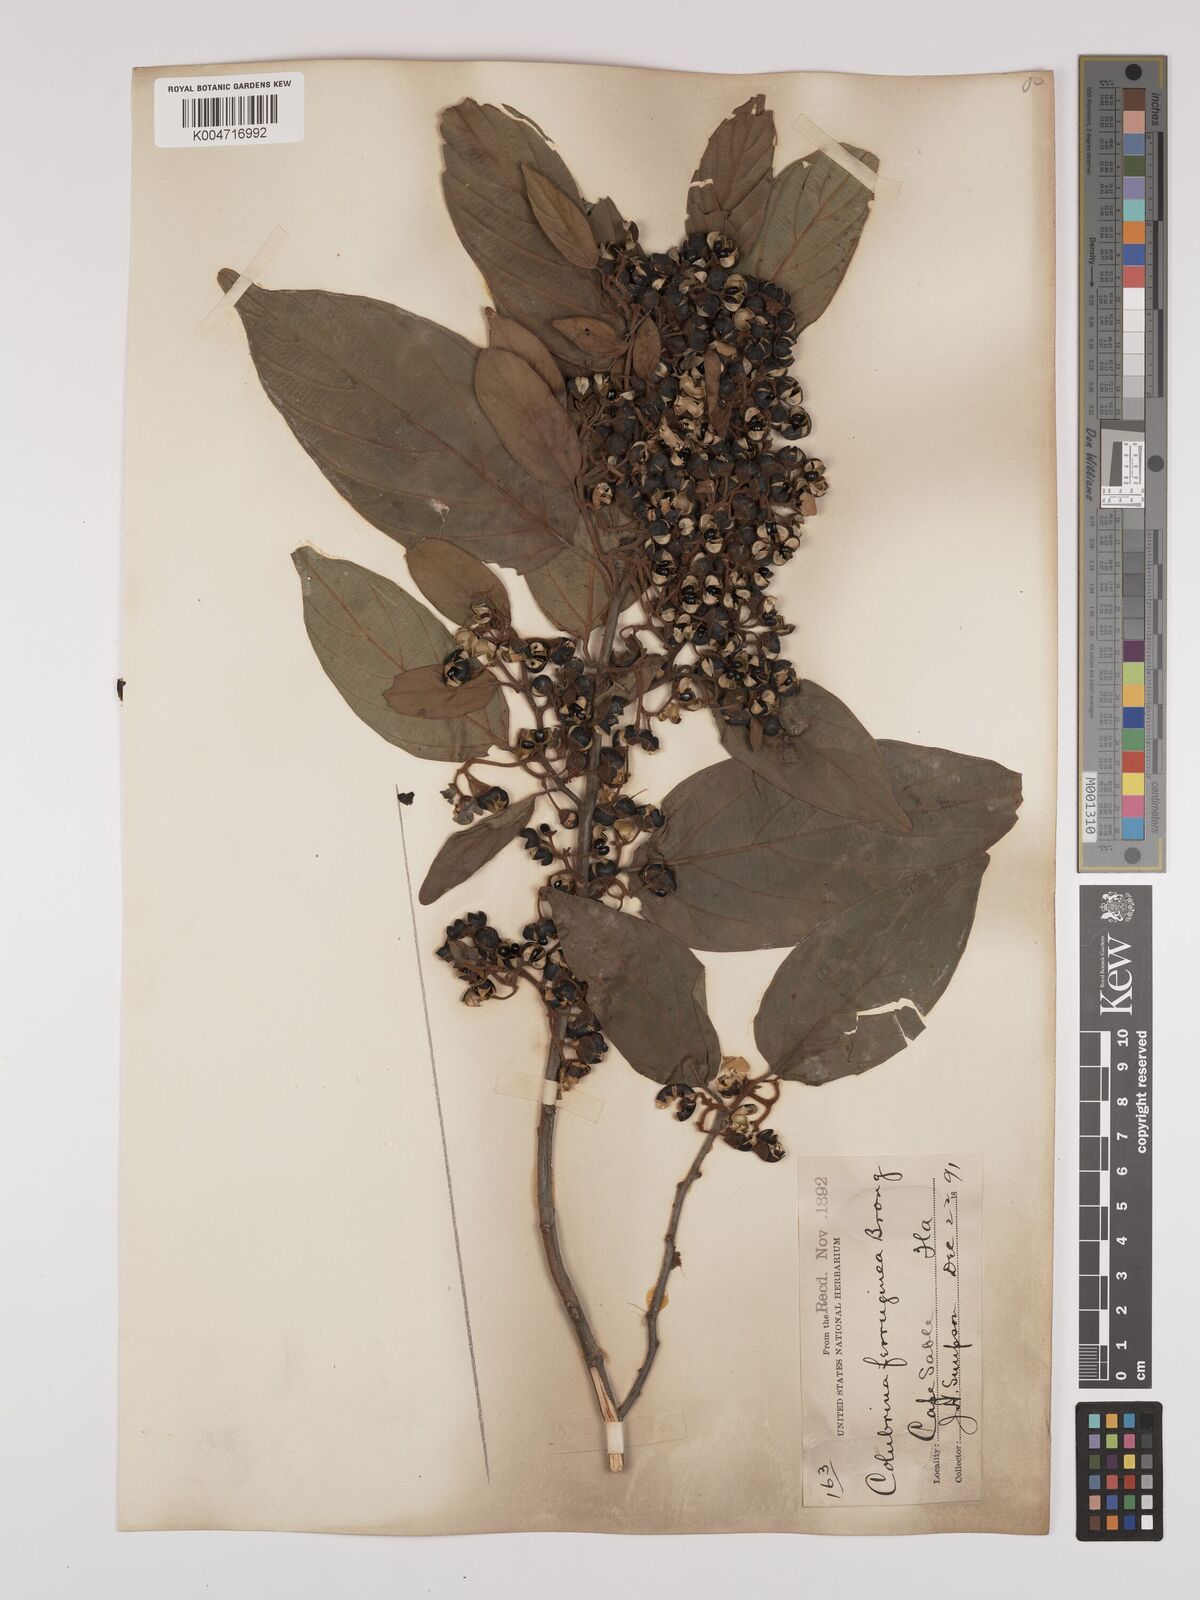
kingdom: Plantae
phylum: Tracheophyta
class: Magnoliopsida
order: Rosales
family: Rhamnaceae
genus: Colubrina
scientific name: Colubrina arborescens
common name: Wild coffee
